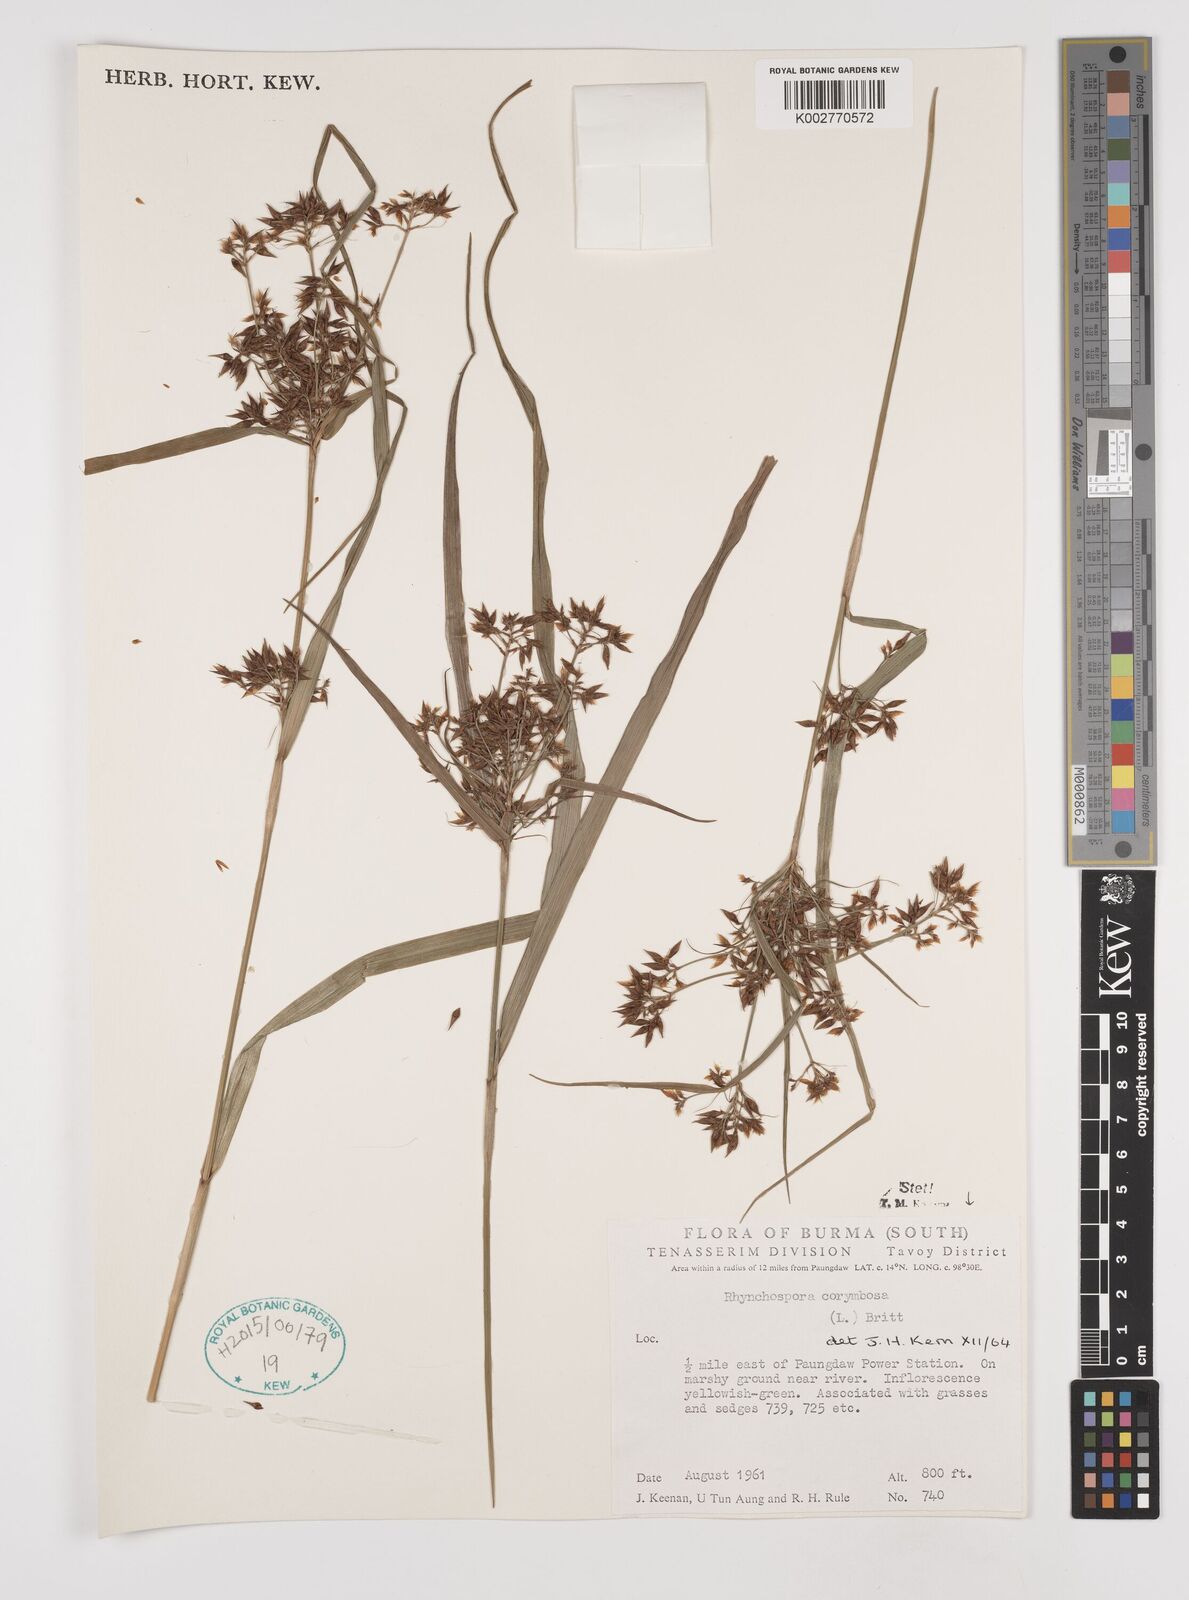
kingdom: Plantae
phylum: Tracheophyta
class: Liliopsida
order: Poales
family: Cyperaceae
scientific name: Cyperaceae
